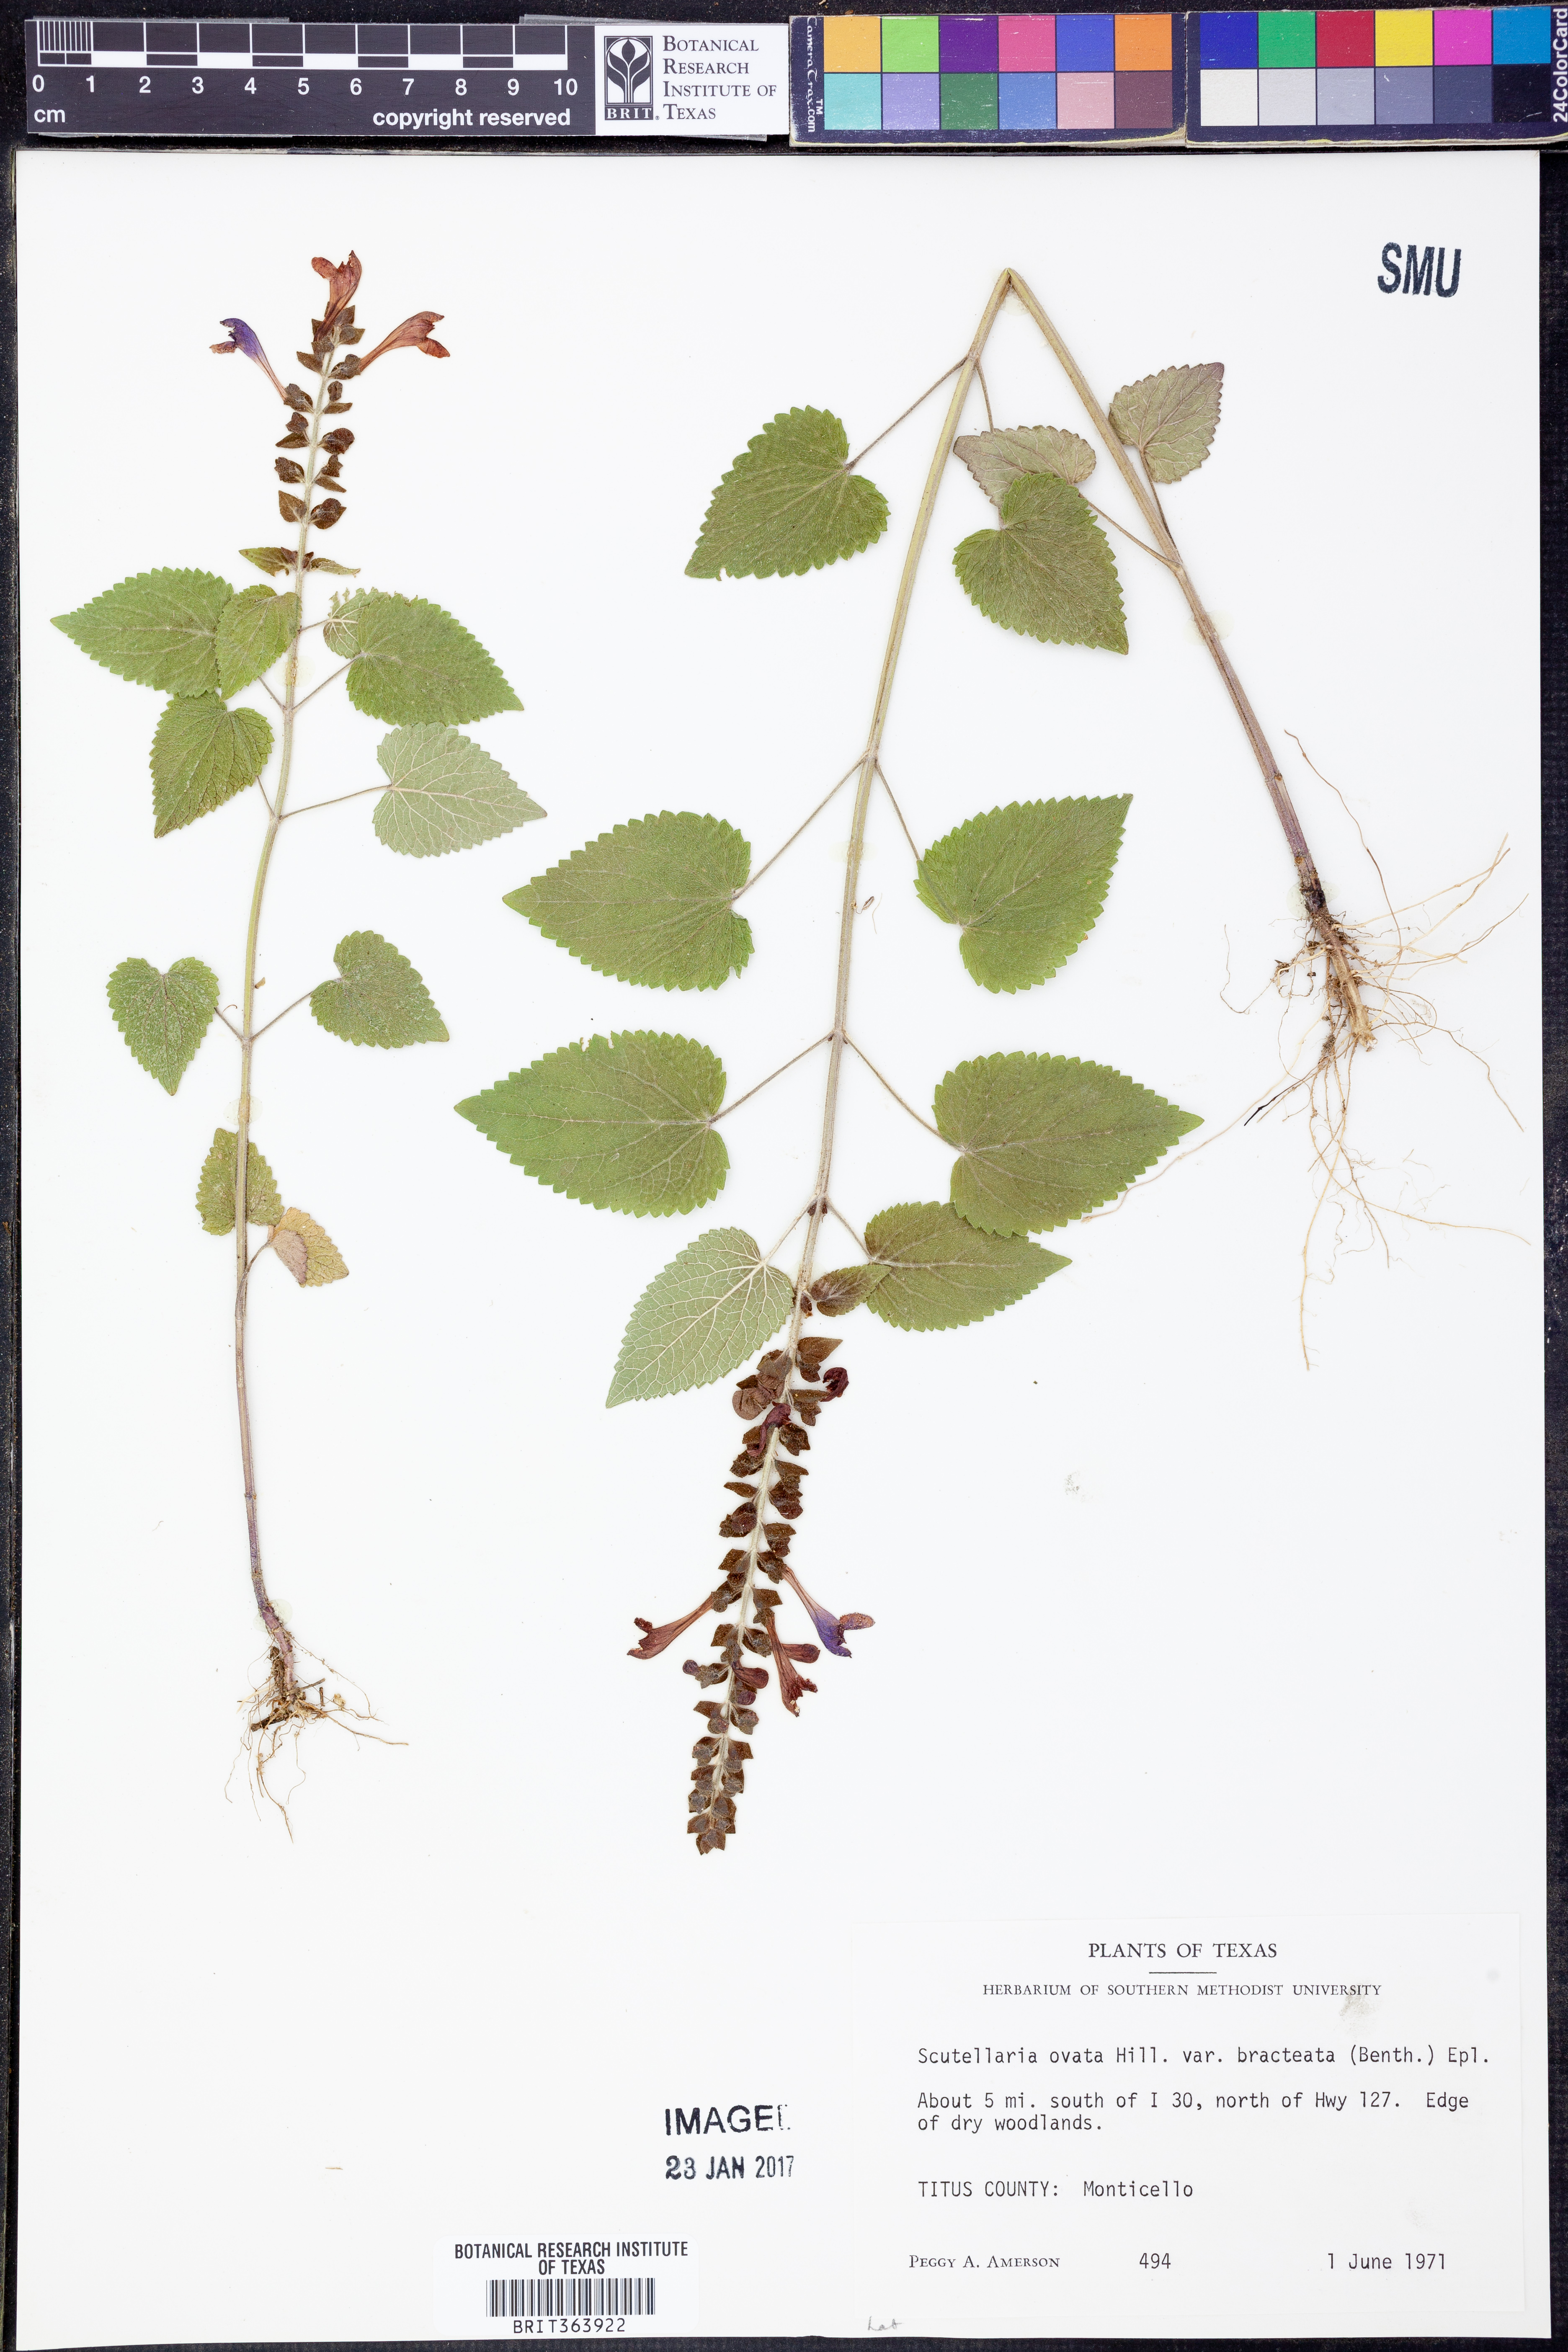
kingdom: Plantae
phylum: Tracheophyta
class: Magnoliopsida
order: Lamiales
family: Lamiaceae
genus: Scutellaria
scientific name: Scutellaria ovata
